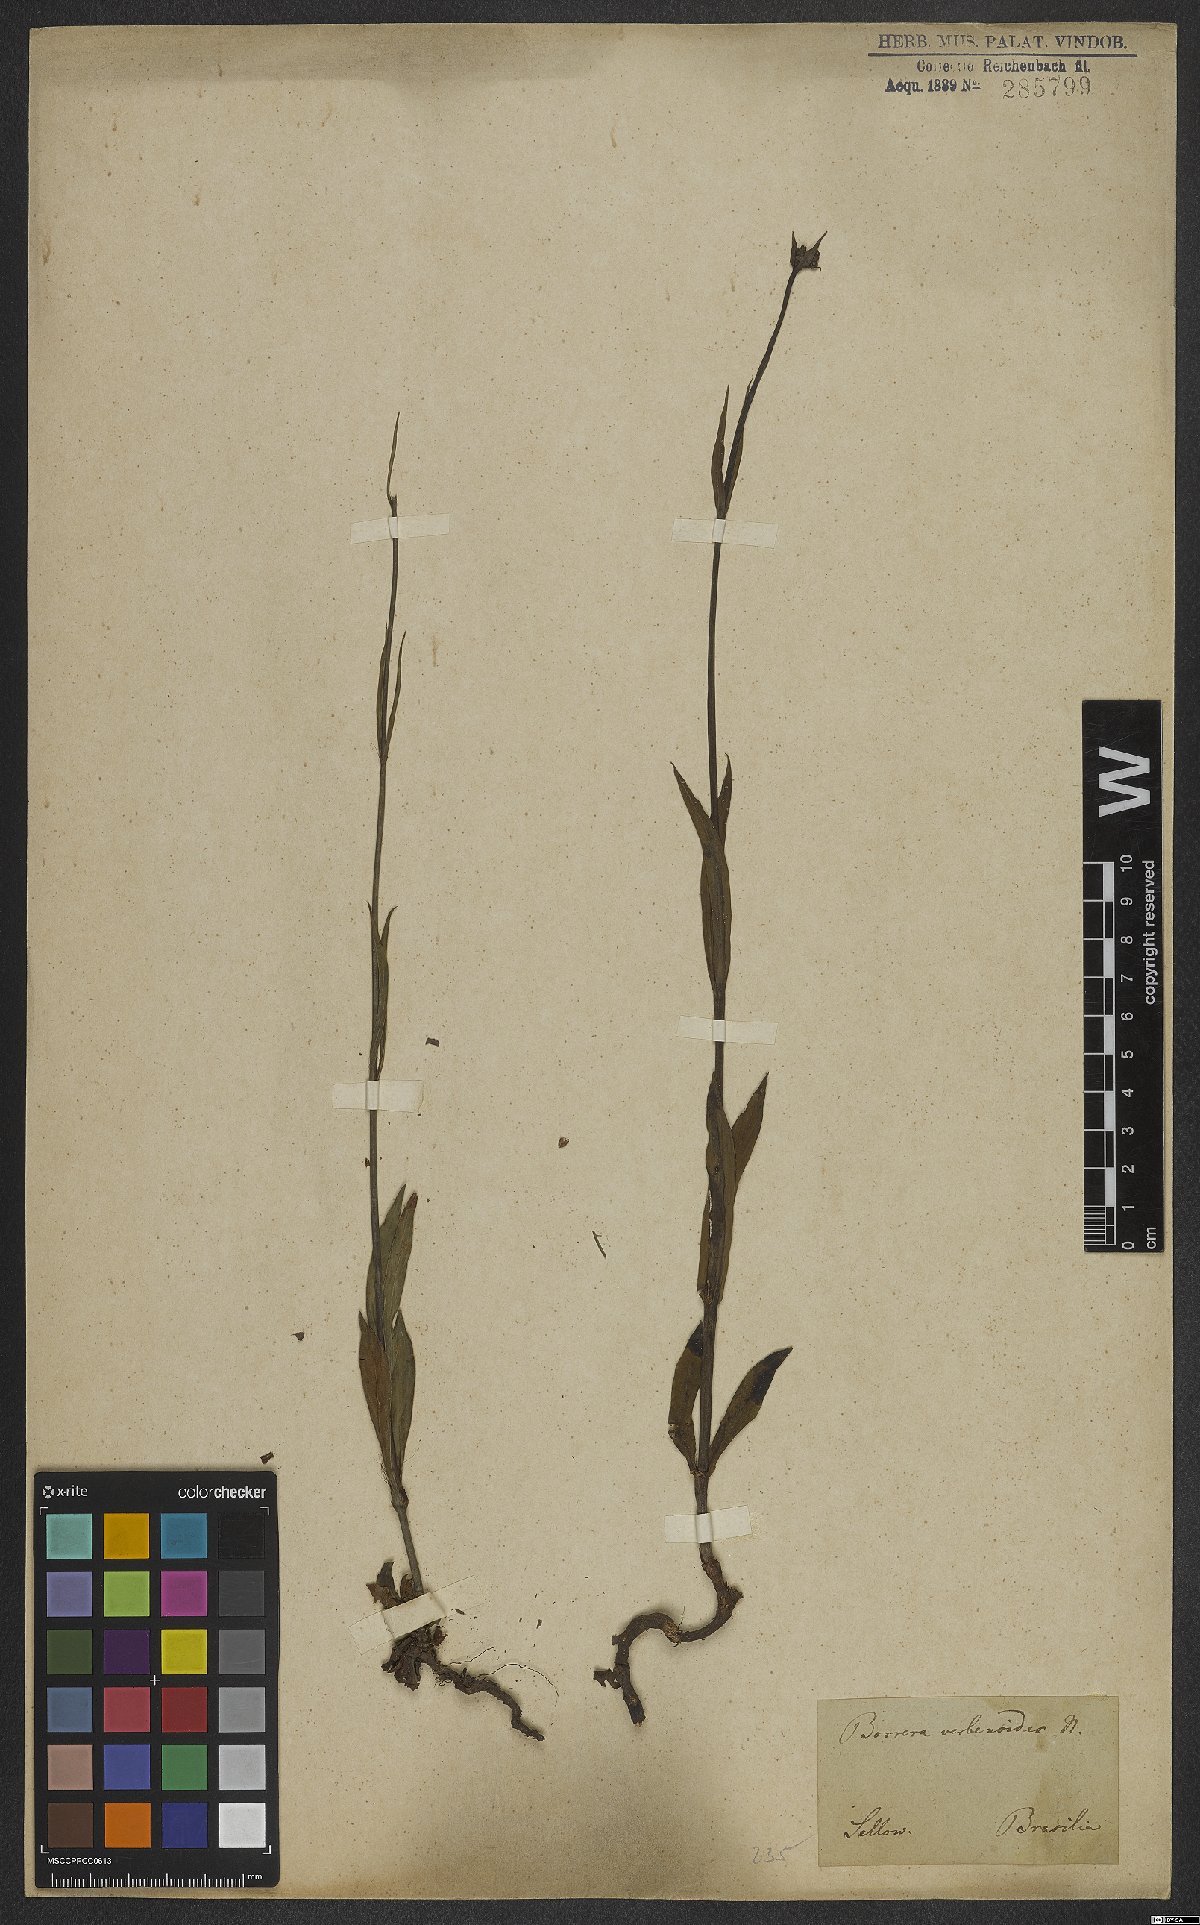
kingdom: Plantae
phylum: Tracheophyta
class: Magnoliopsida
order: Gentianales
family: Rubiaceae
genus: Galianthe
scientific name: Galianthe valerianoides
